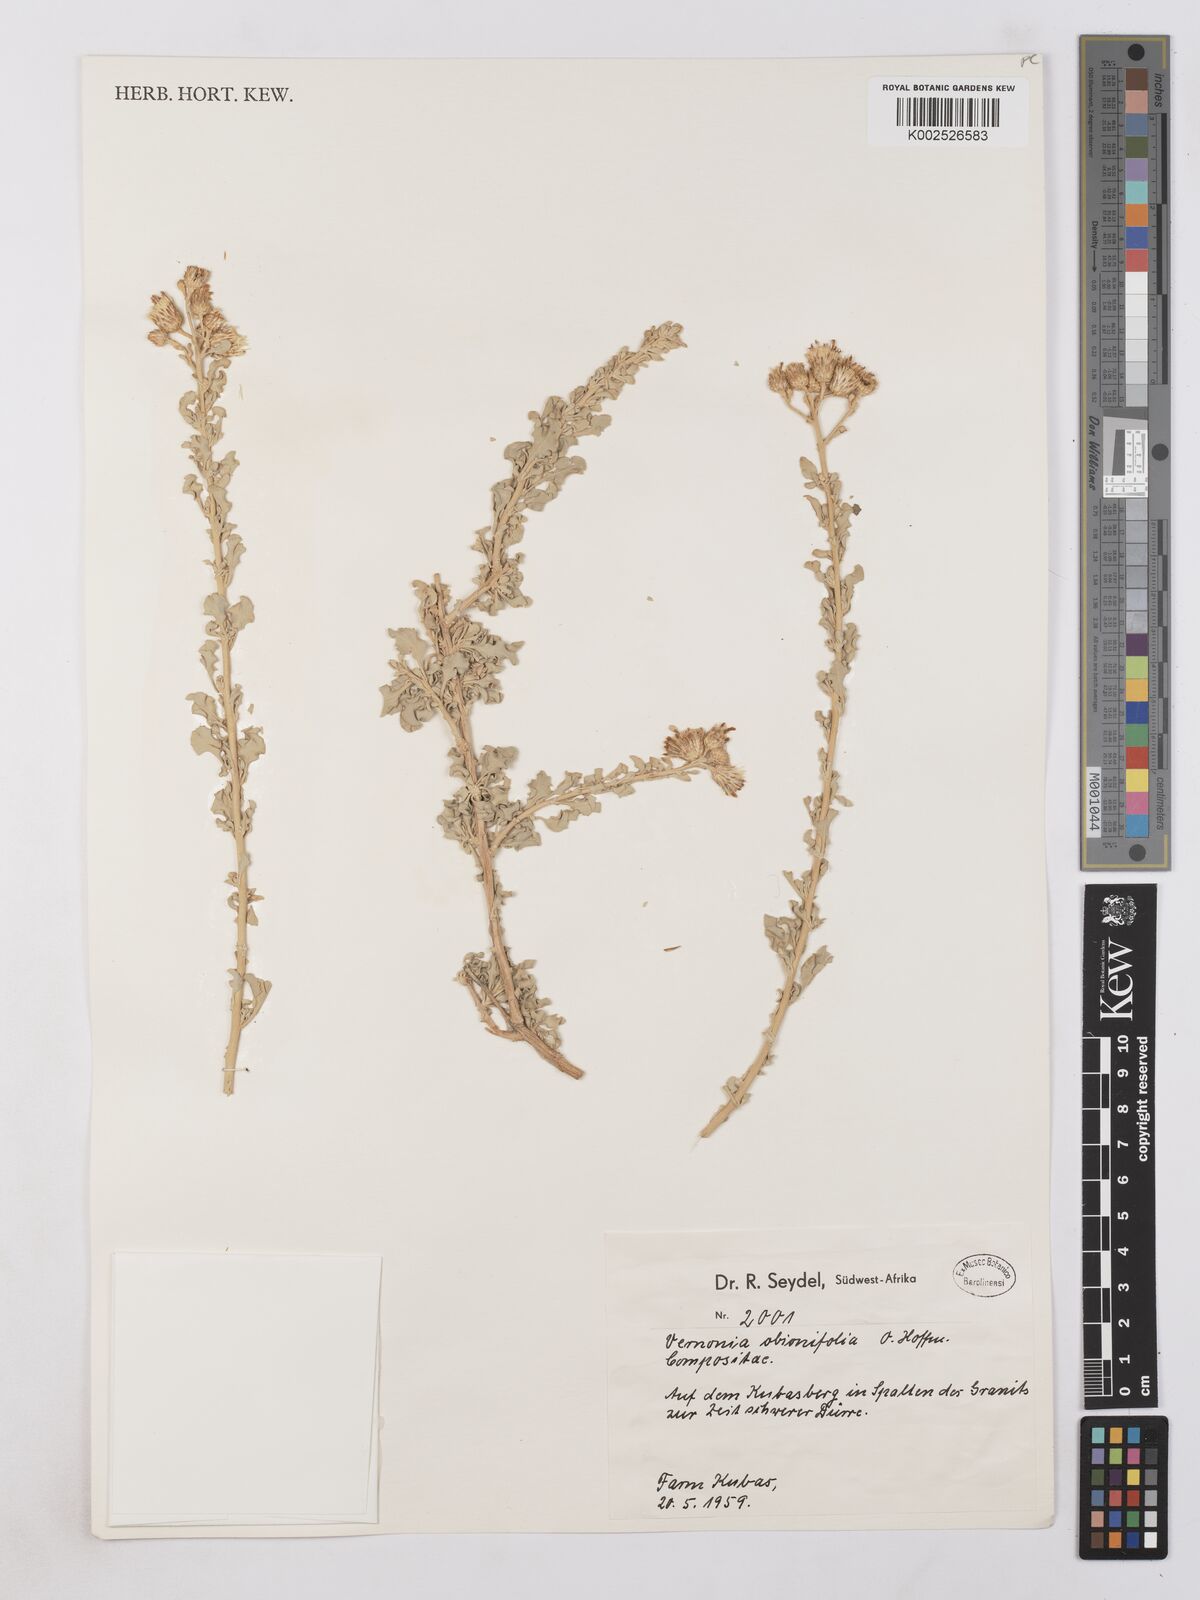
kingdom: Plantae
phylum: Tracheophyta
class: Magnoliopsida
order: Asterales
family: Asteraceae
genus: Namibithamnus
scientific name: Namibithamnus obionifolius
